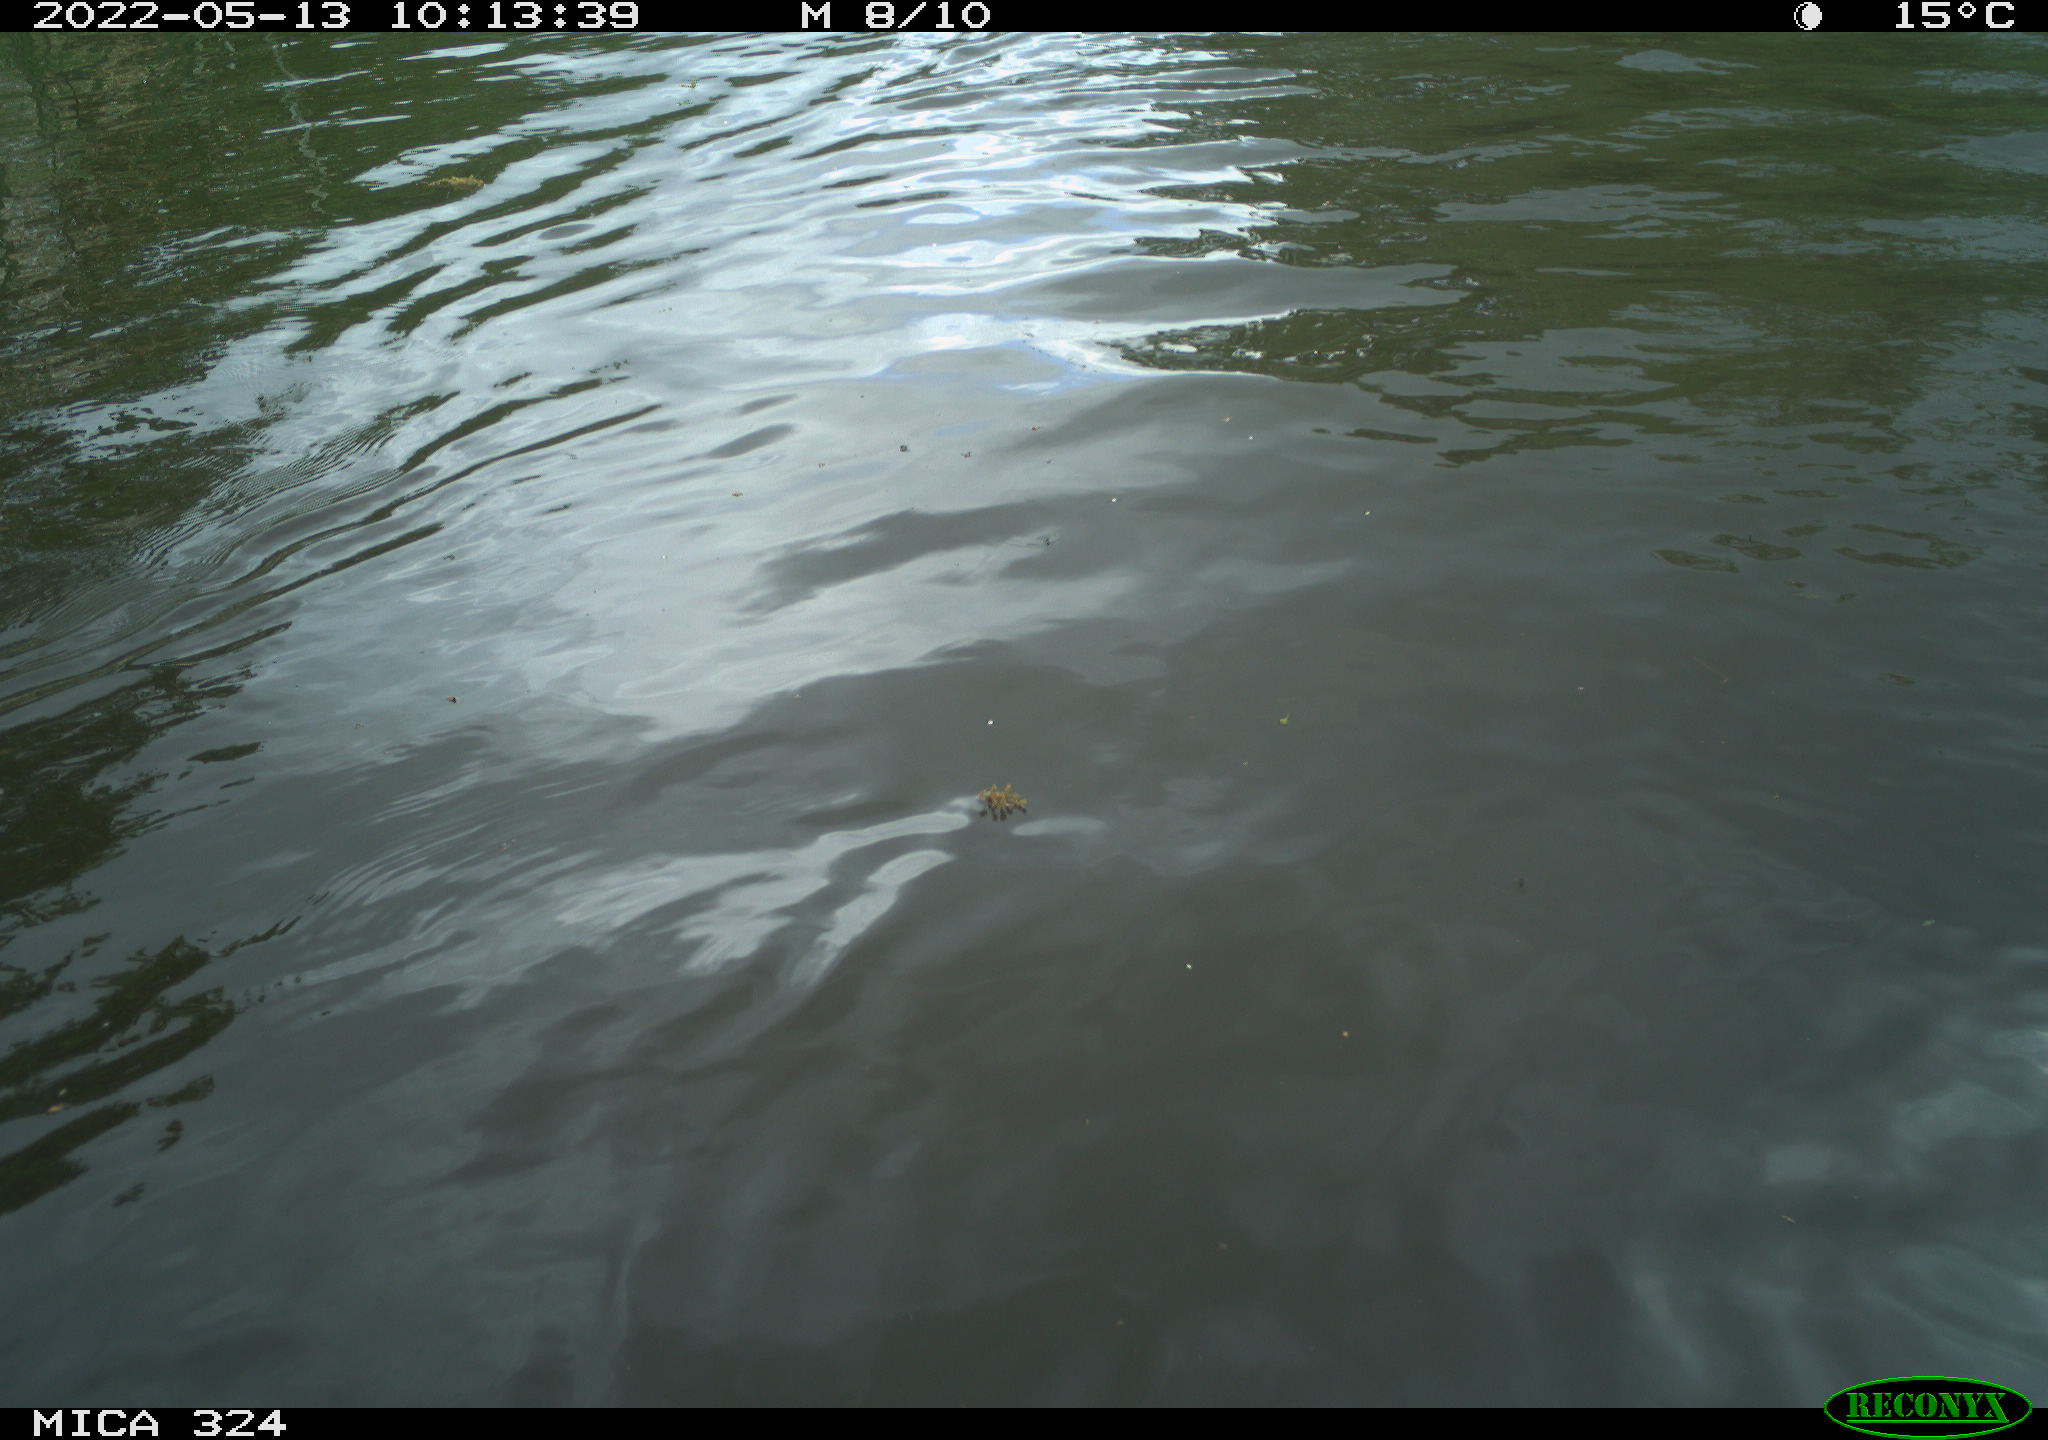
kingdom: Animalia
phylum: Chordata
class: Aves
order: Anseriformes
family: Anatidae
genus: Anas
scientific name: Anas platyrhynchos
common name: Mallard
